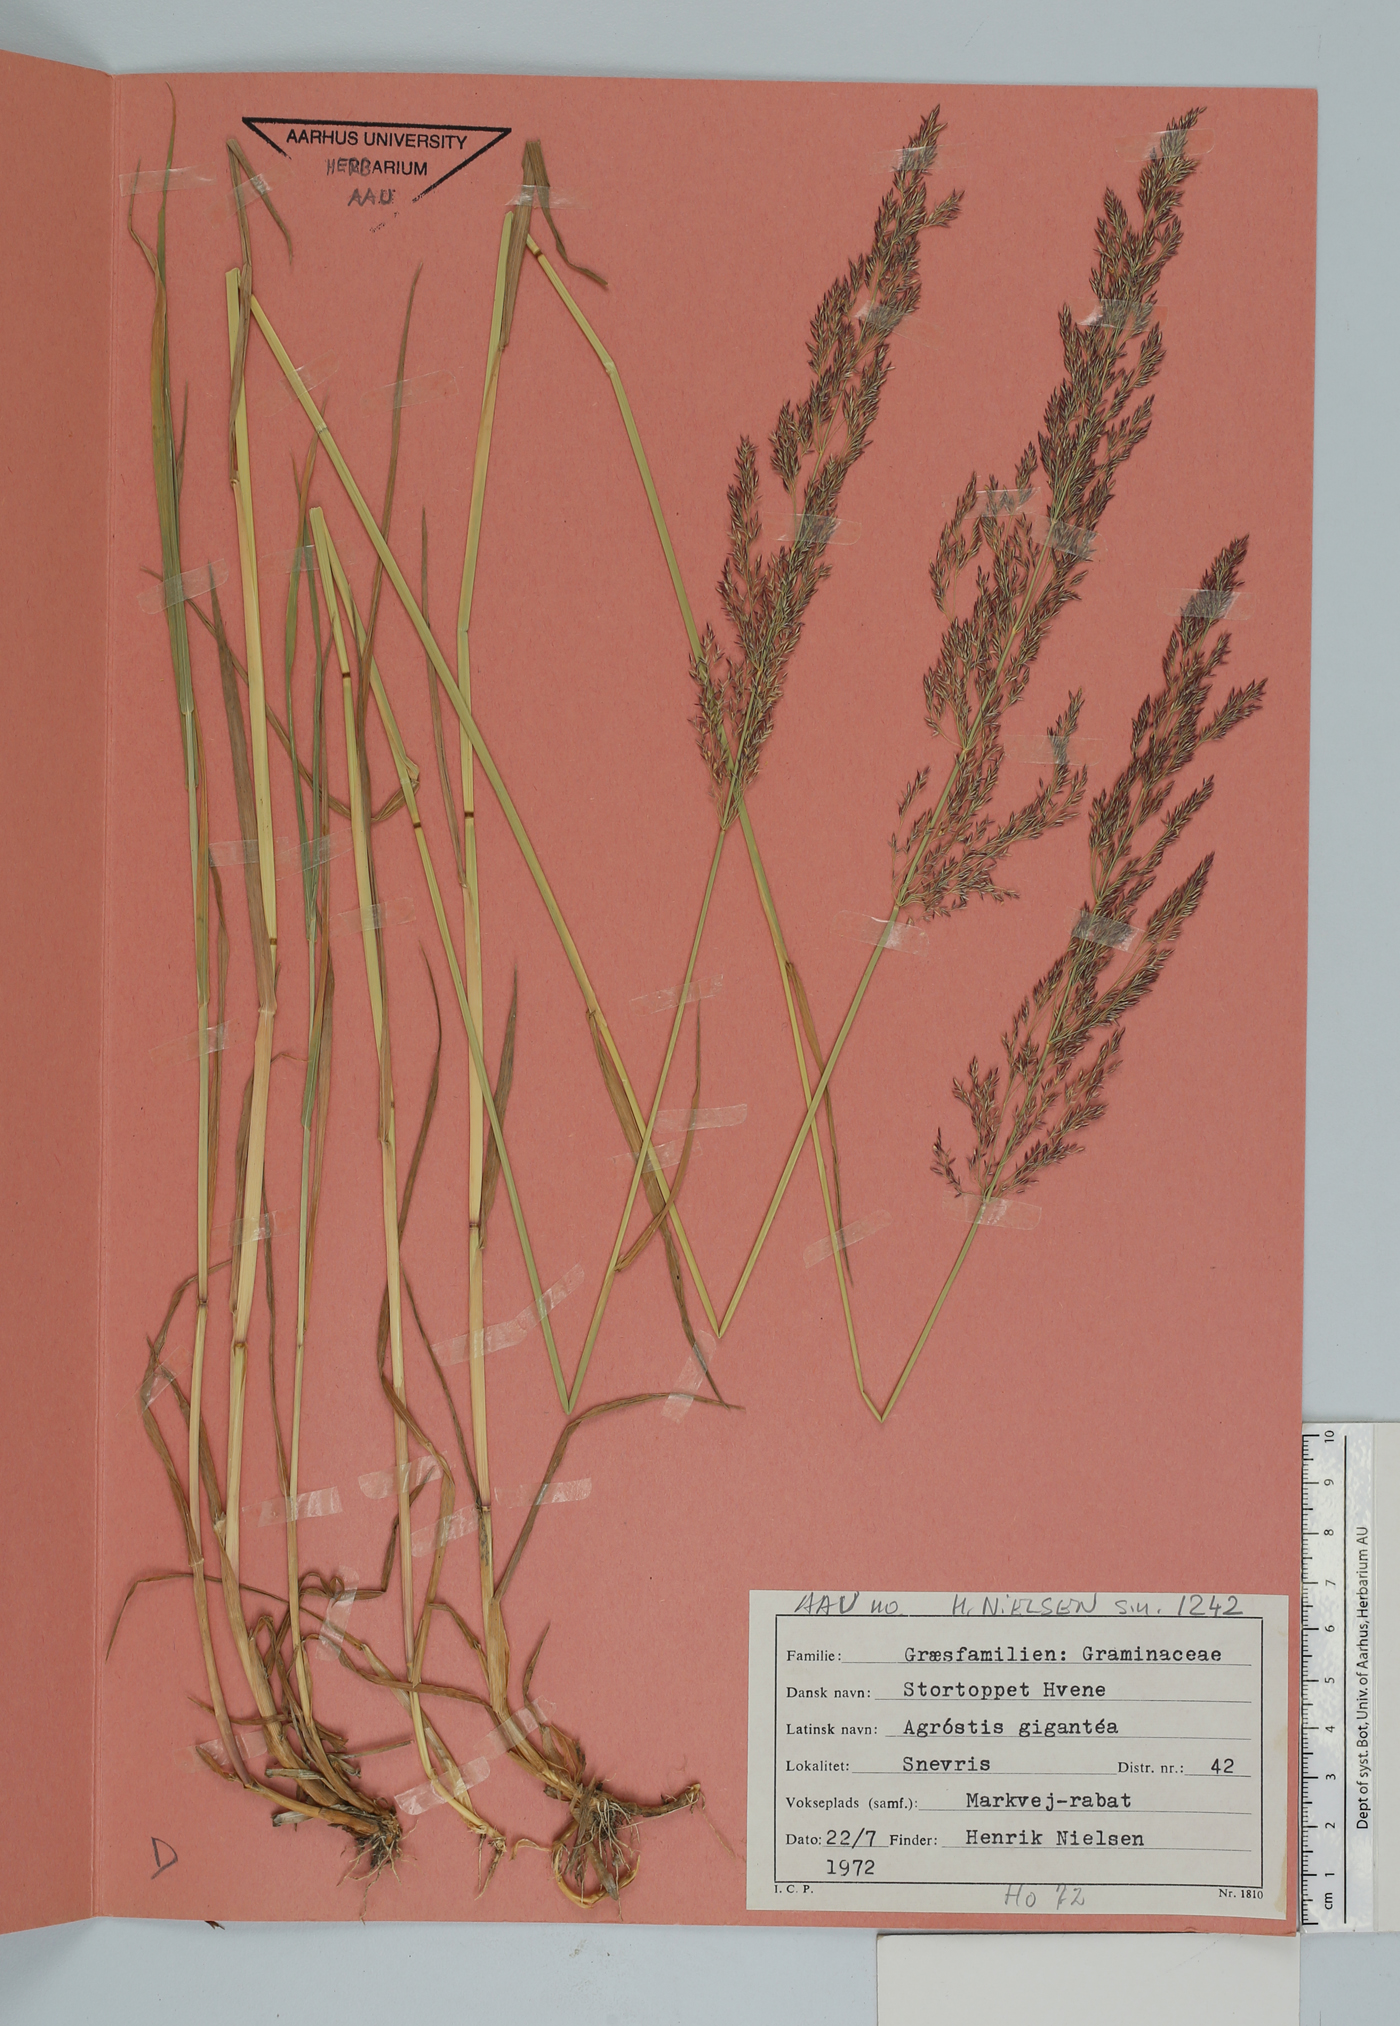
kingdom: Plantae
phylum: Tracheophyta
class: Liliopsida
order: Poales
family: Poaceae
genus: Agrostis
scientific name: Agrostis gigantea
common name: Black bent
